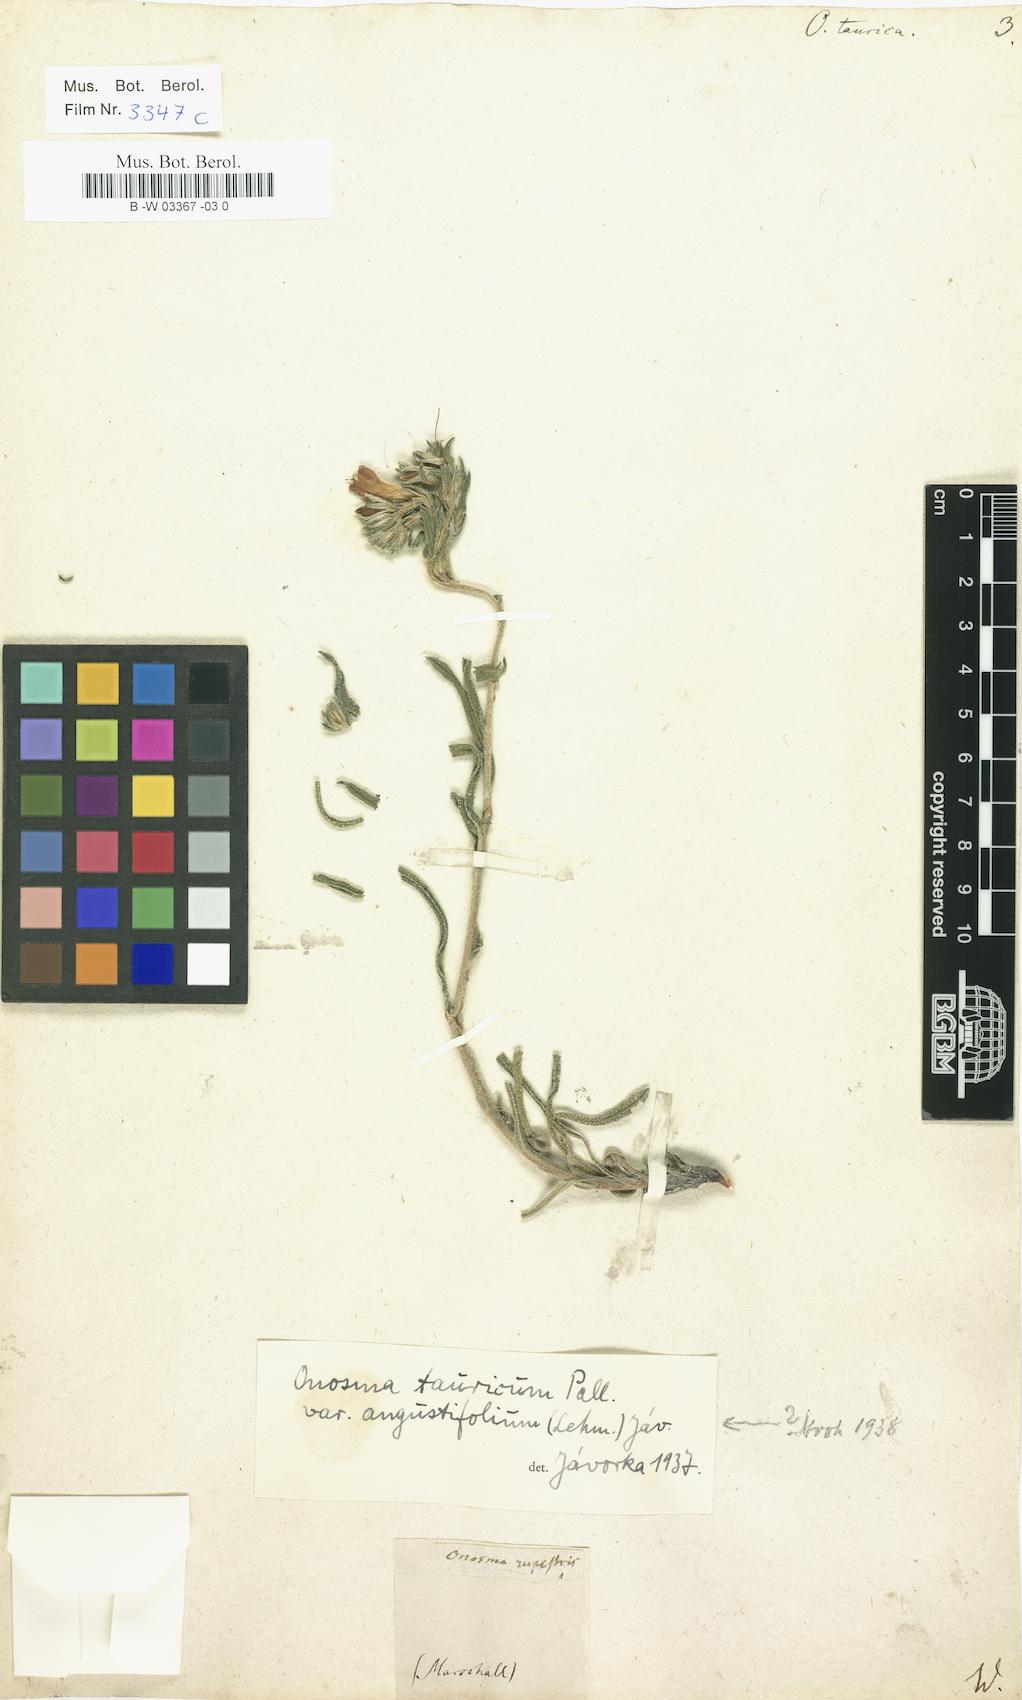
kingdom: Plantae
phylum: Tracheophyta
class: Magnoliopsida
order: Boraginales
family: Boraginaceae
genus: Onosma
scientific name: Onosma taurica
